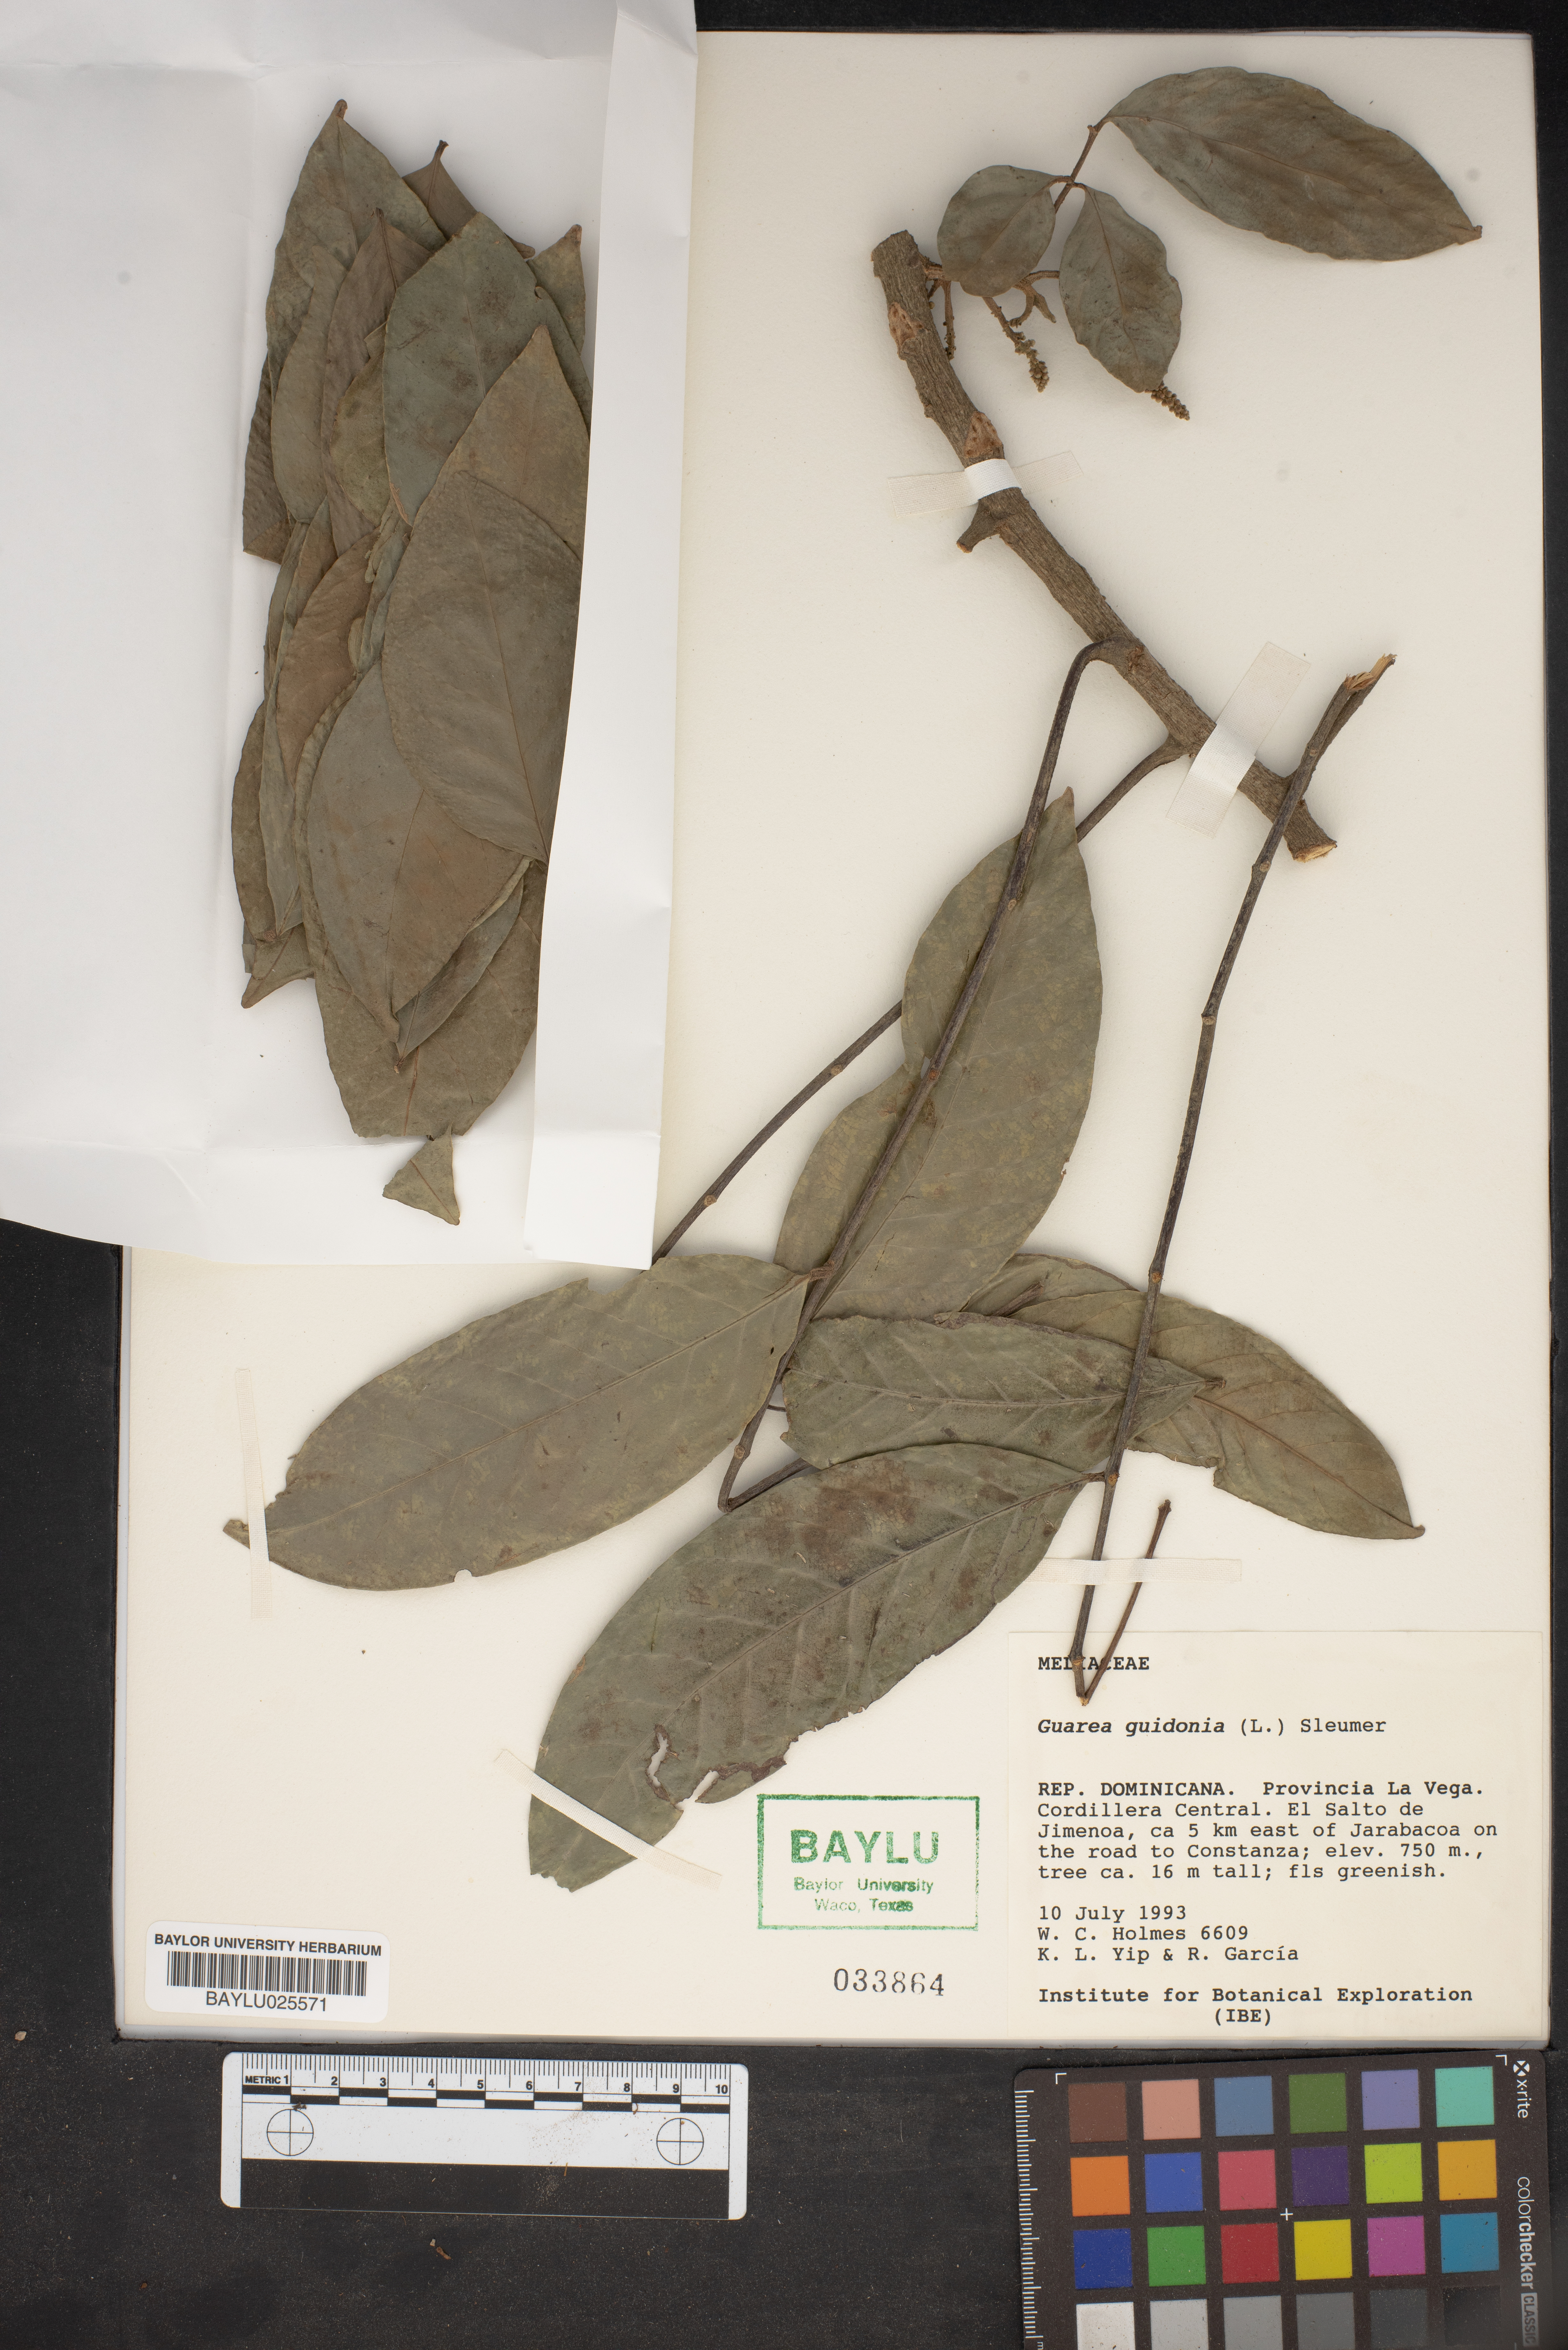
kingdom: Plantae
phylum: Tracheophyta
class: Magnoliopsida
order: Sapindales
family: Meliaceae
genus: Guarea
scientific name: Guarea guidonia
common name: American muskwood
